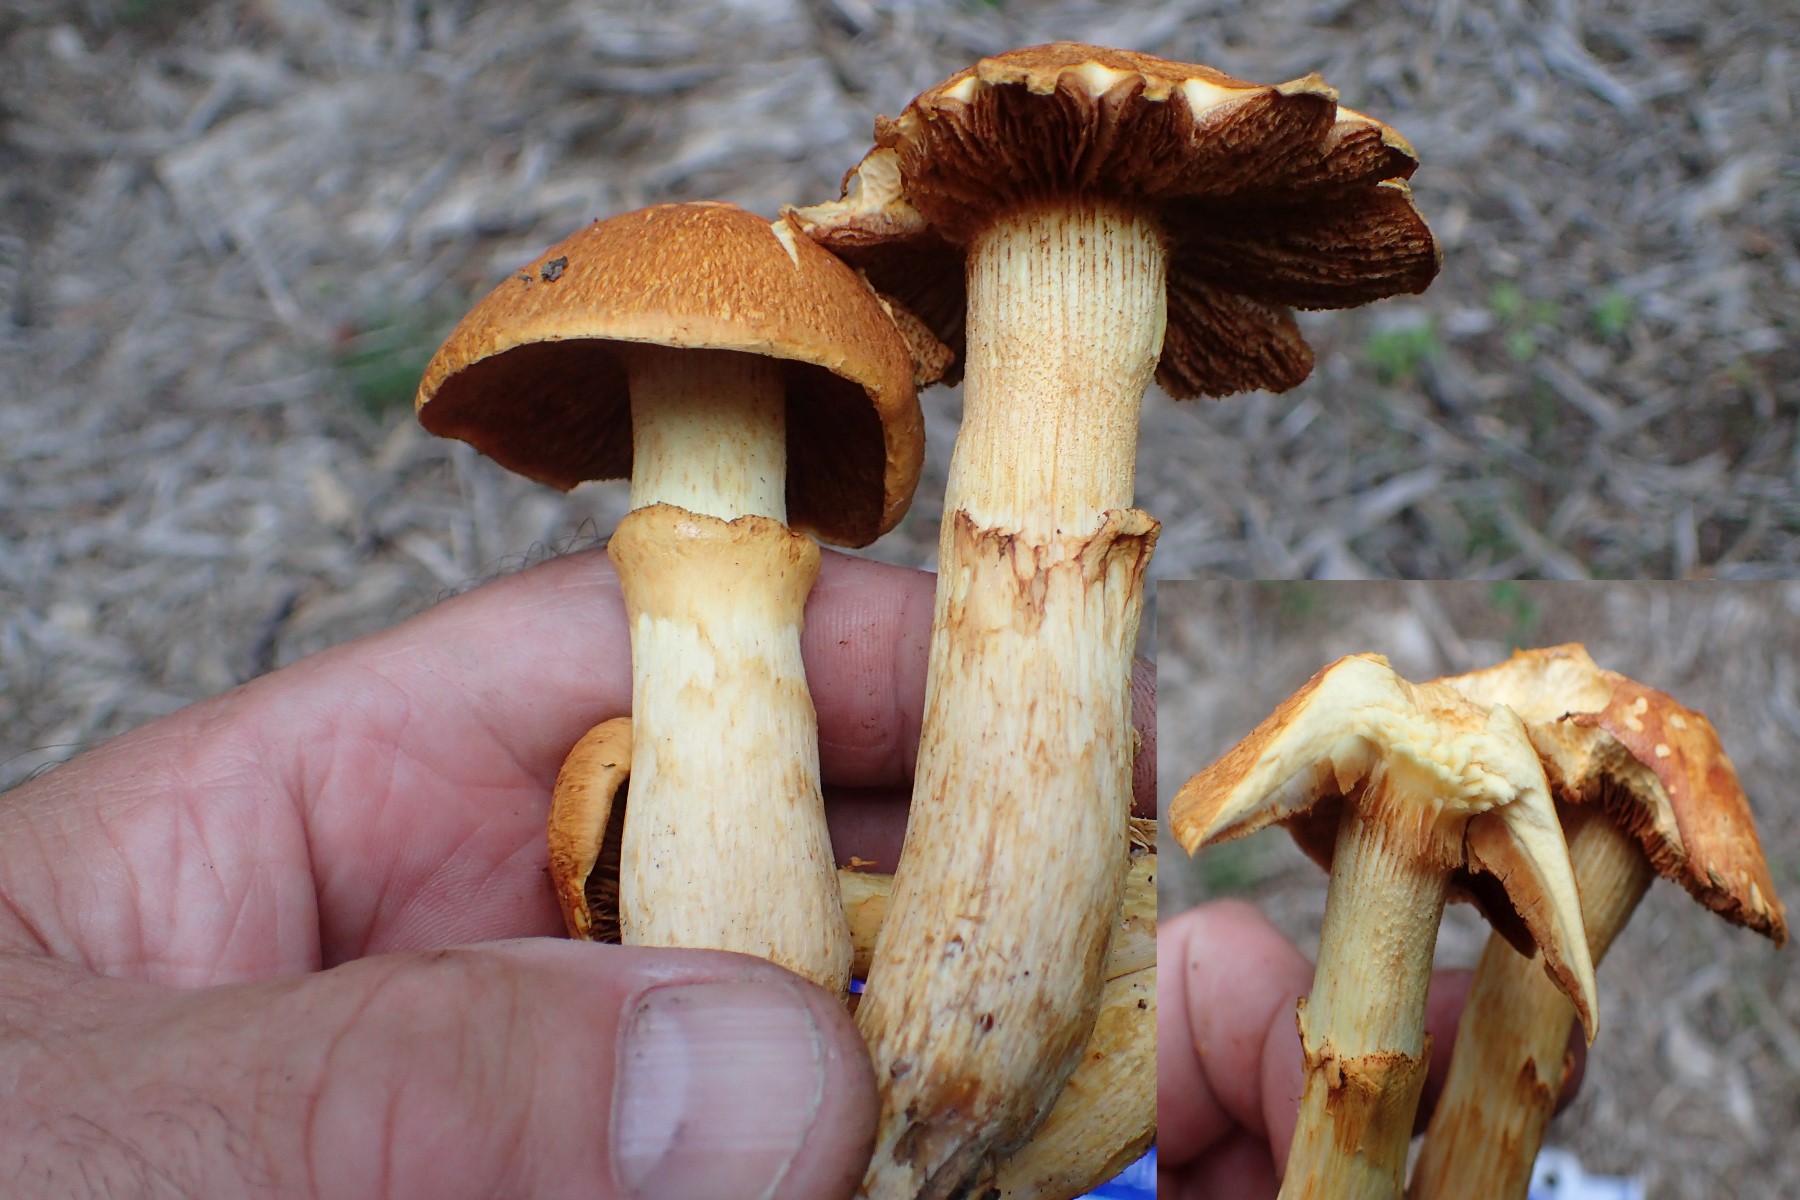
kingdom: Fungi
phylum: Basidiomycota
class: Agaricomycetes
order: Agaricales
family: Hymenogastraceae
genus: Gymnopilus
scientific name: Gymnopilus spectabilis
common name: fibret flammehat
